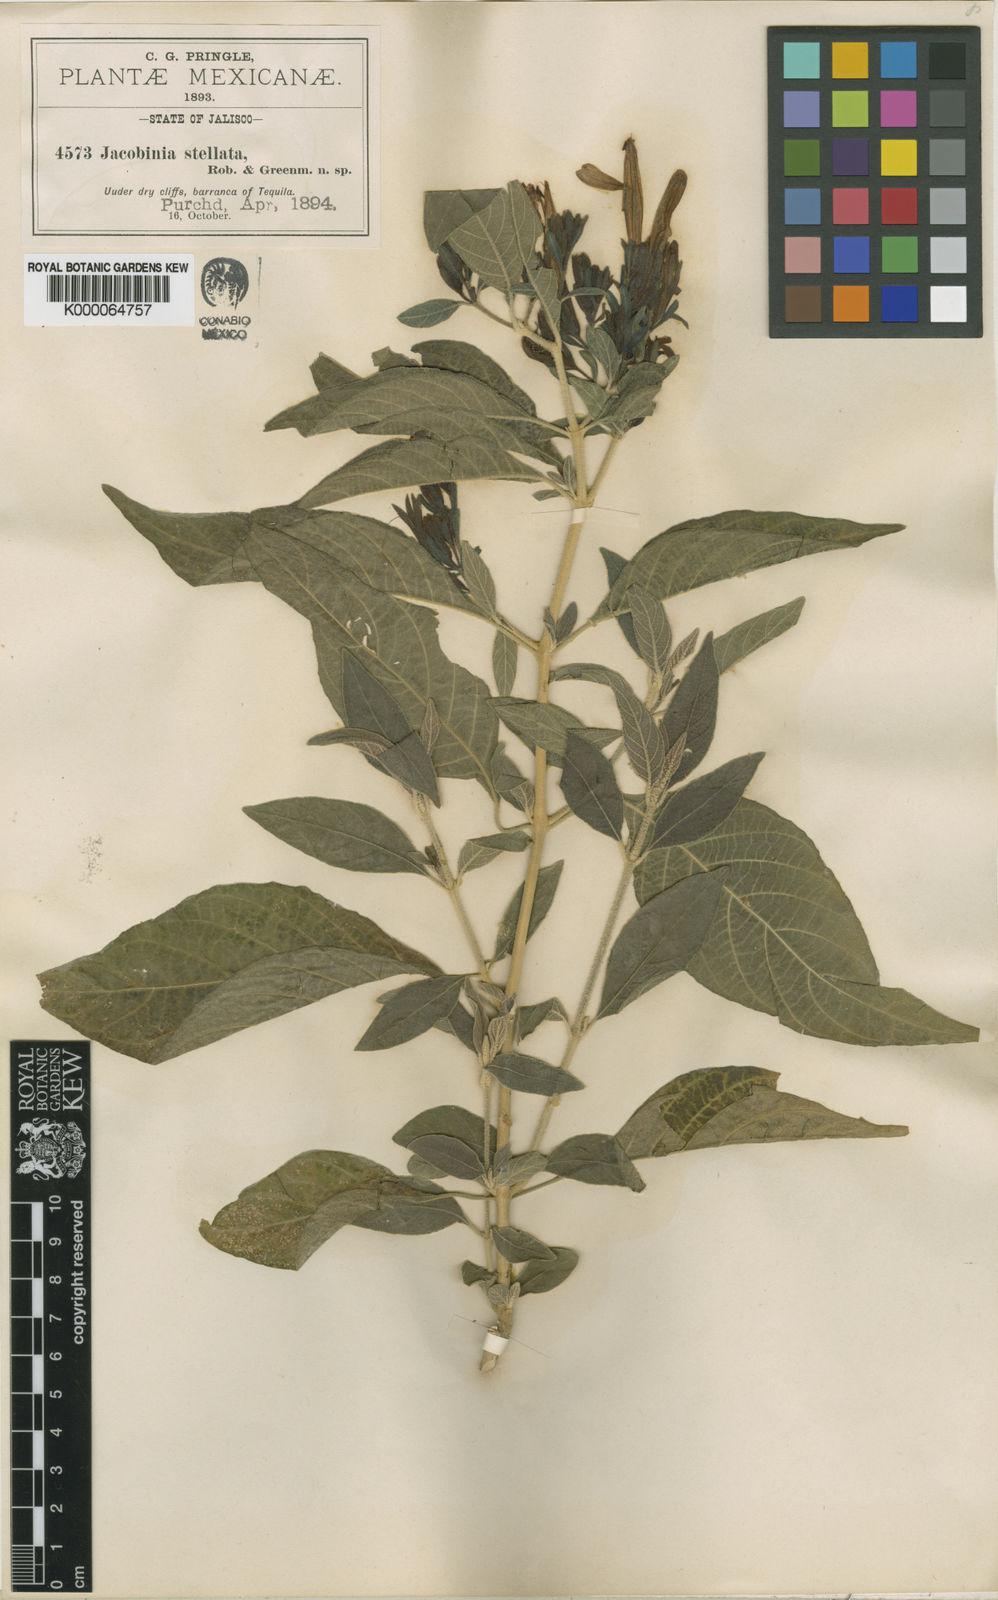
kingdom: Plantae
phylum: Tracheophyta
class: Magnoliopsida
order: Lamiales
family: Acanthaceae
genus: Justicia
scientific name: Justicia stellata
